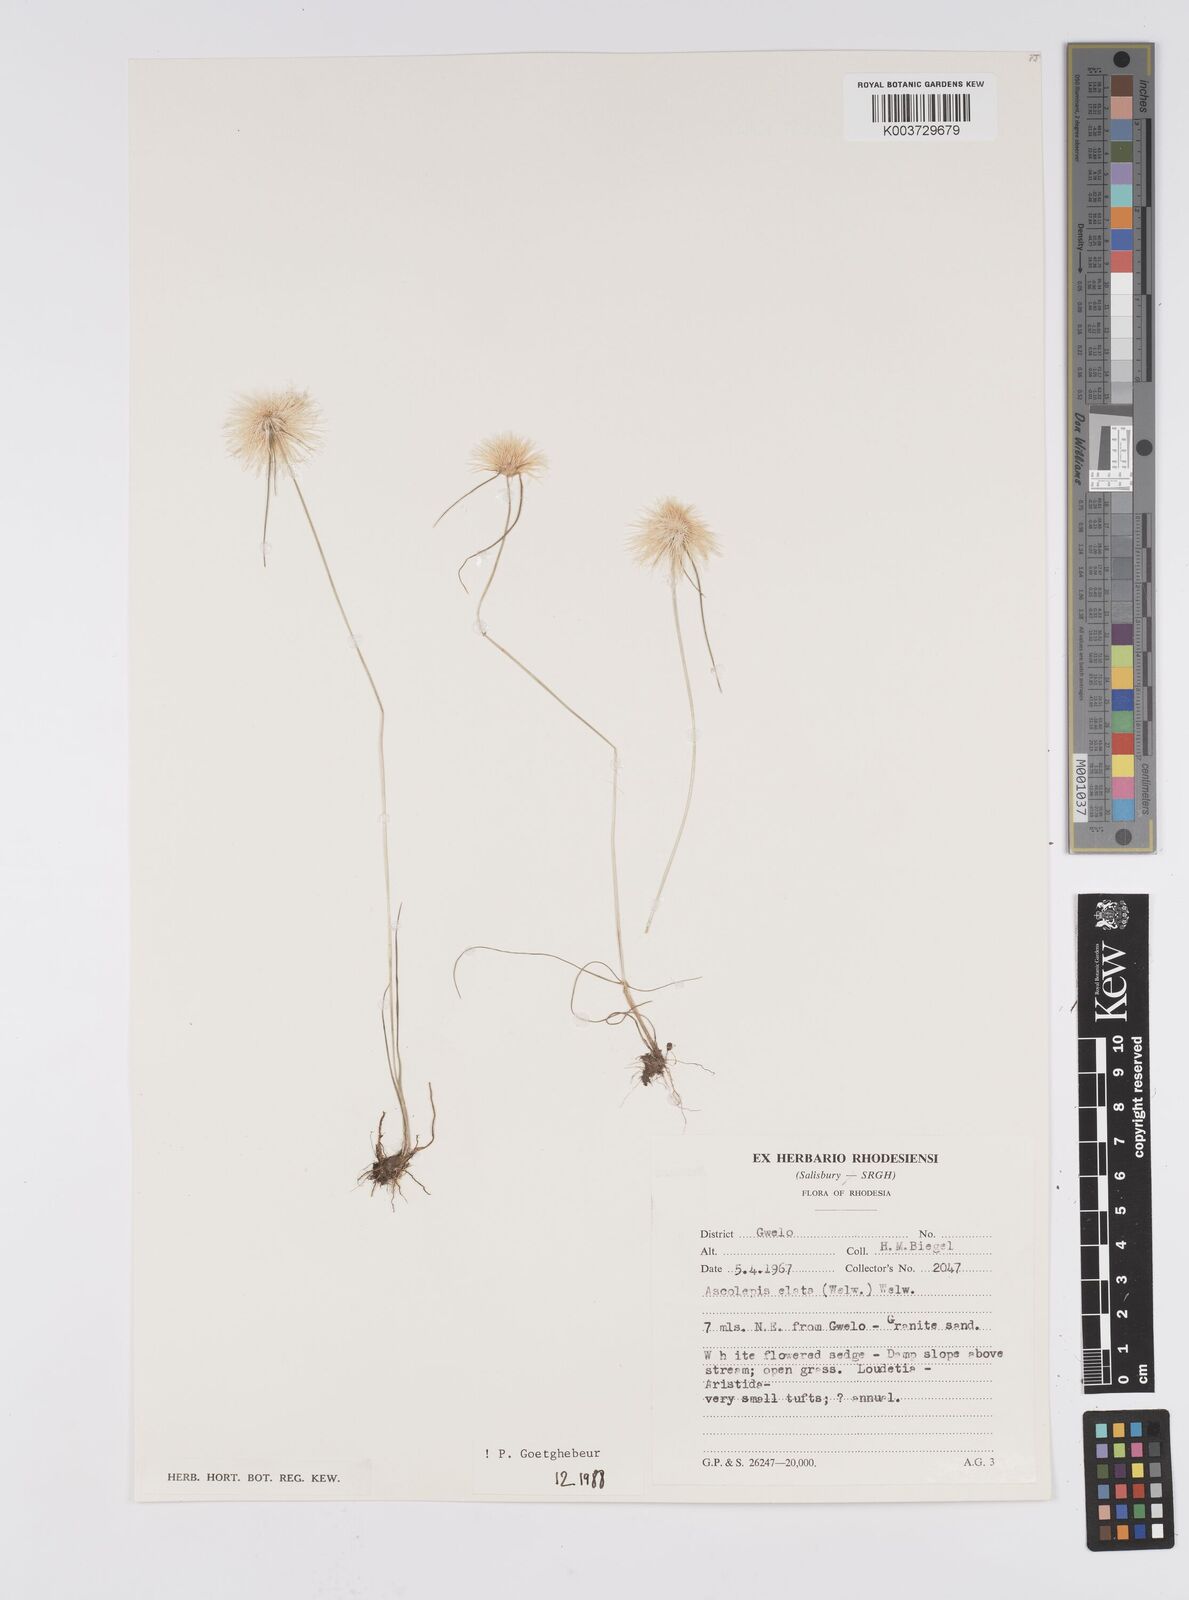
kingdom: Plantae
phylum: Tracheophyta
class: Liliopsida
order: Poales
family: Cyperaceae
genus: Cyperus
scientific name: Cyperus
